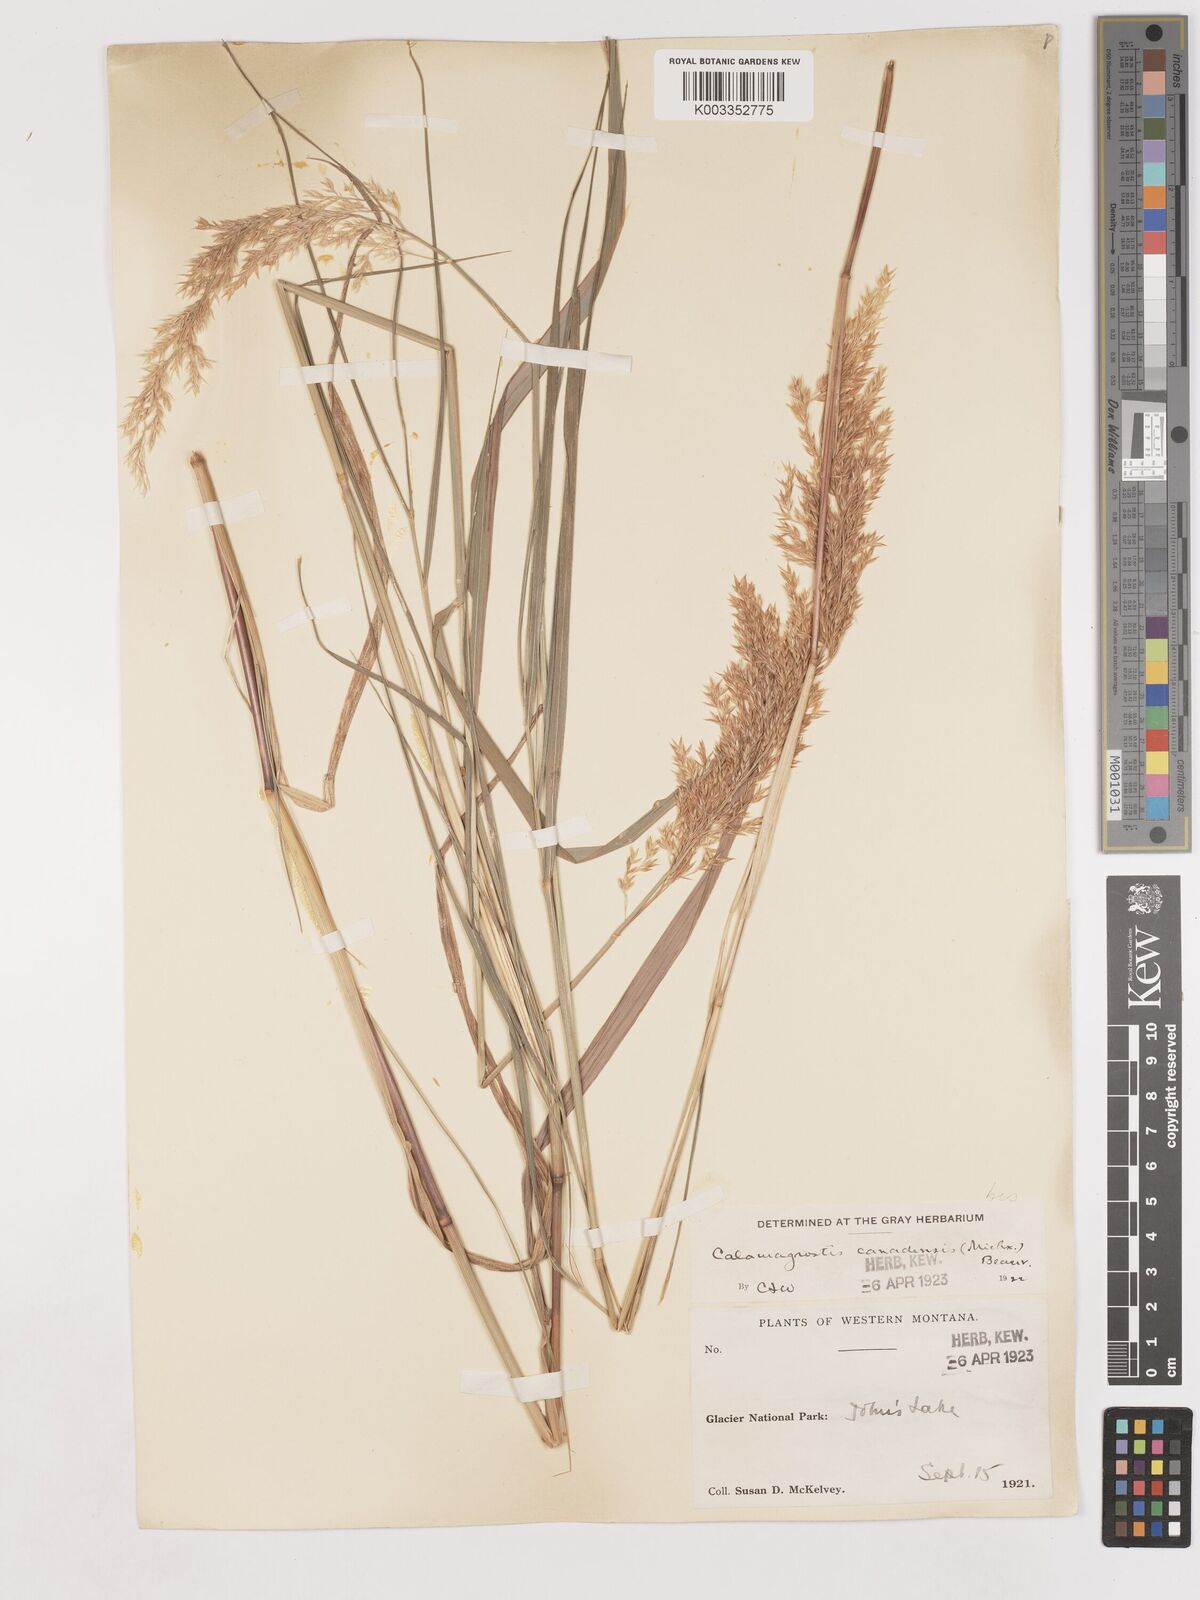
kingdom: Plantae
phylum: Tracheophyta
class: Liliopsida
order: Poales
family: Poaceae
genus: Calamagrostis
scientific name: Calamagrostis canadensis
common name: Canada bluejoint
